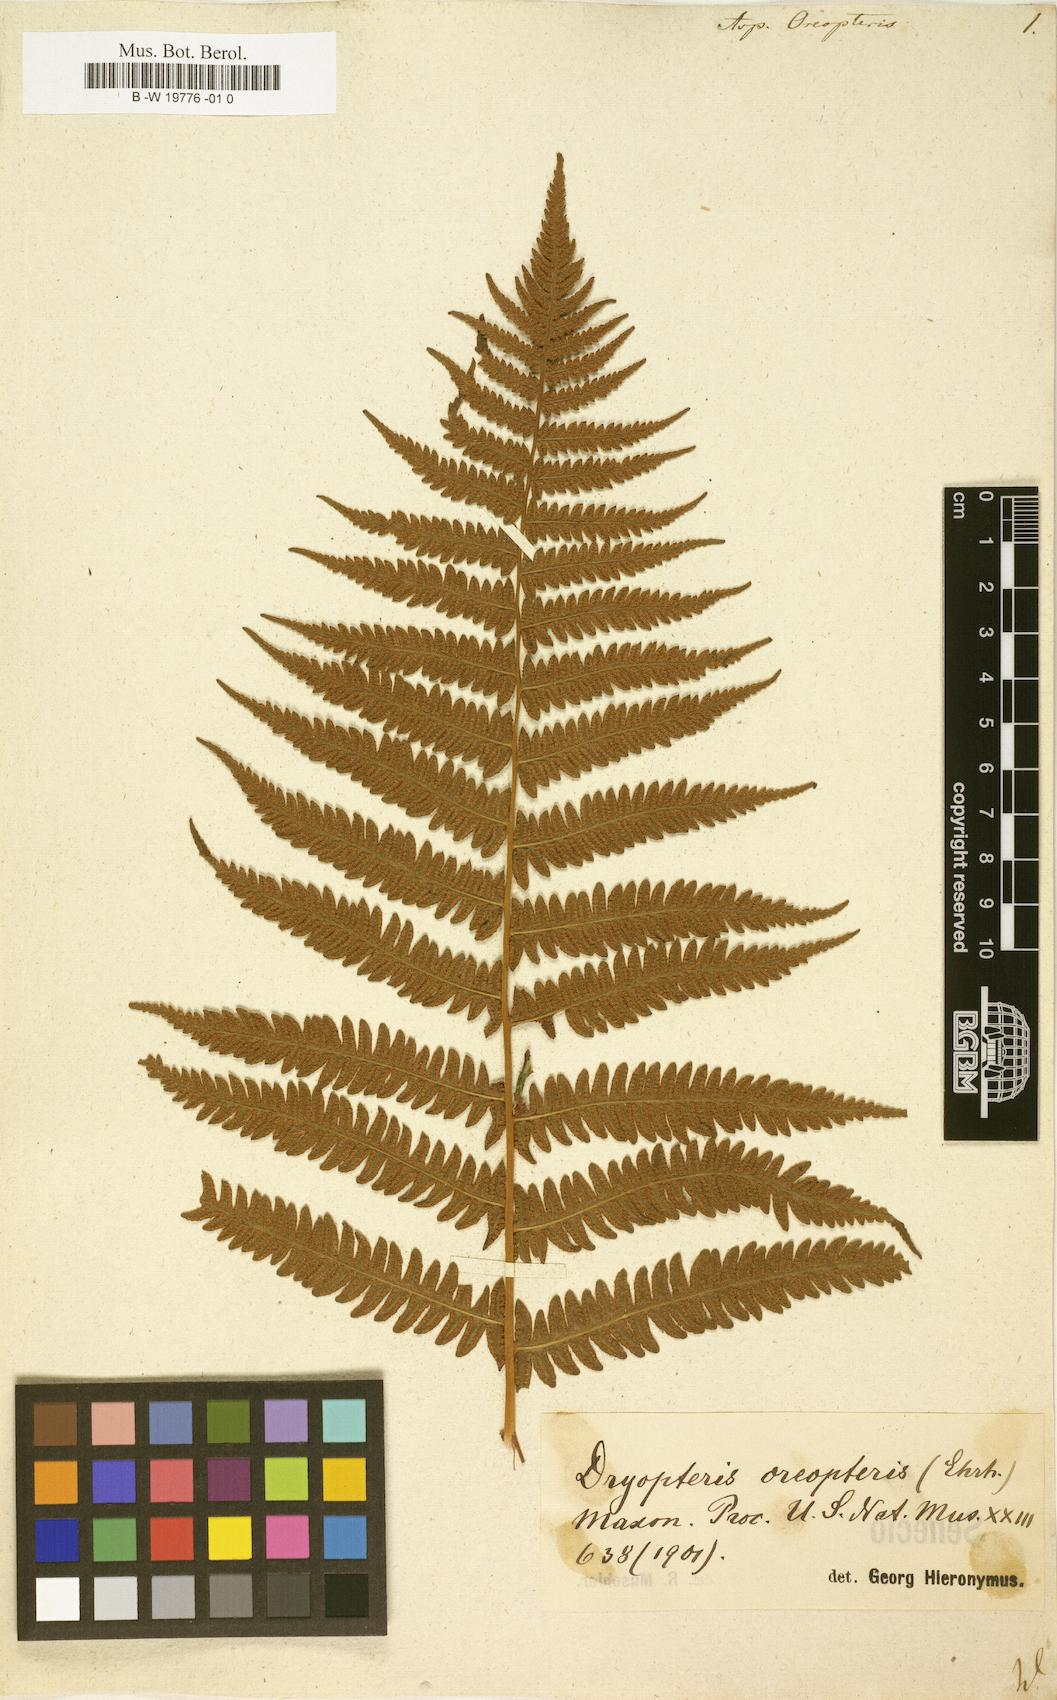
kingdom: Plantae
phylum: Tracheophyta
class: Polypodiopsida
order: Polypodiales
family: Thelypteridaceae
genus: Oreopteris
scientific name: Oreopteris limbosperma
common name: Lemon-scented fern
